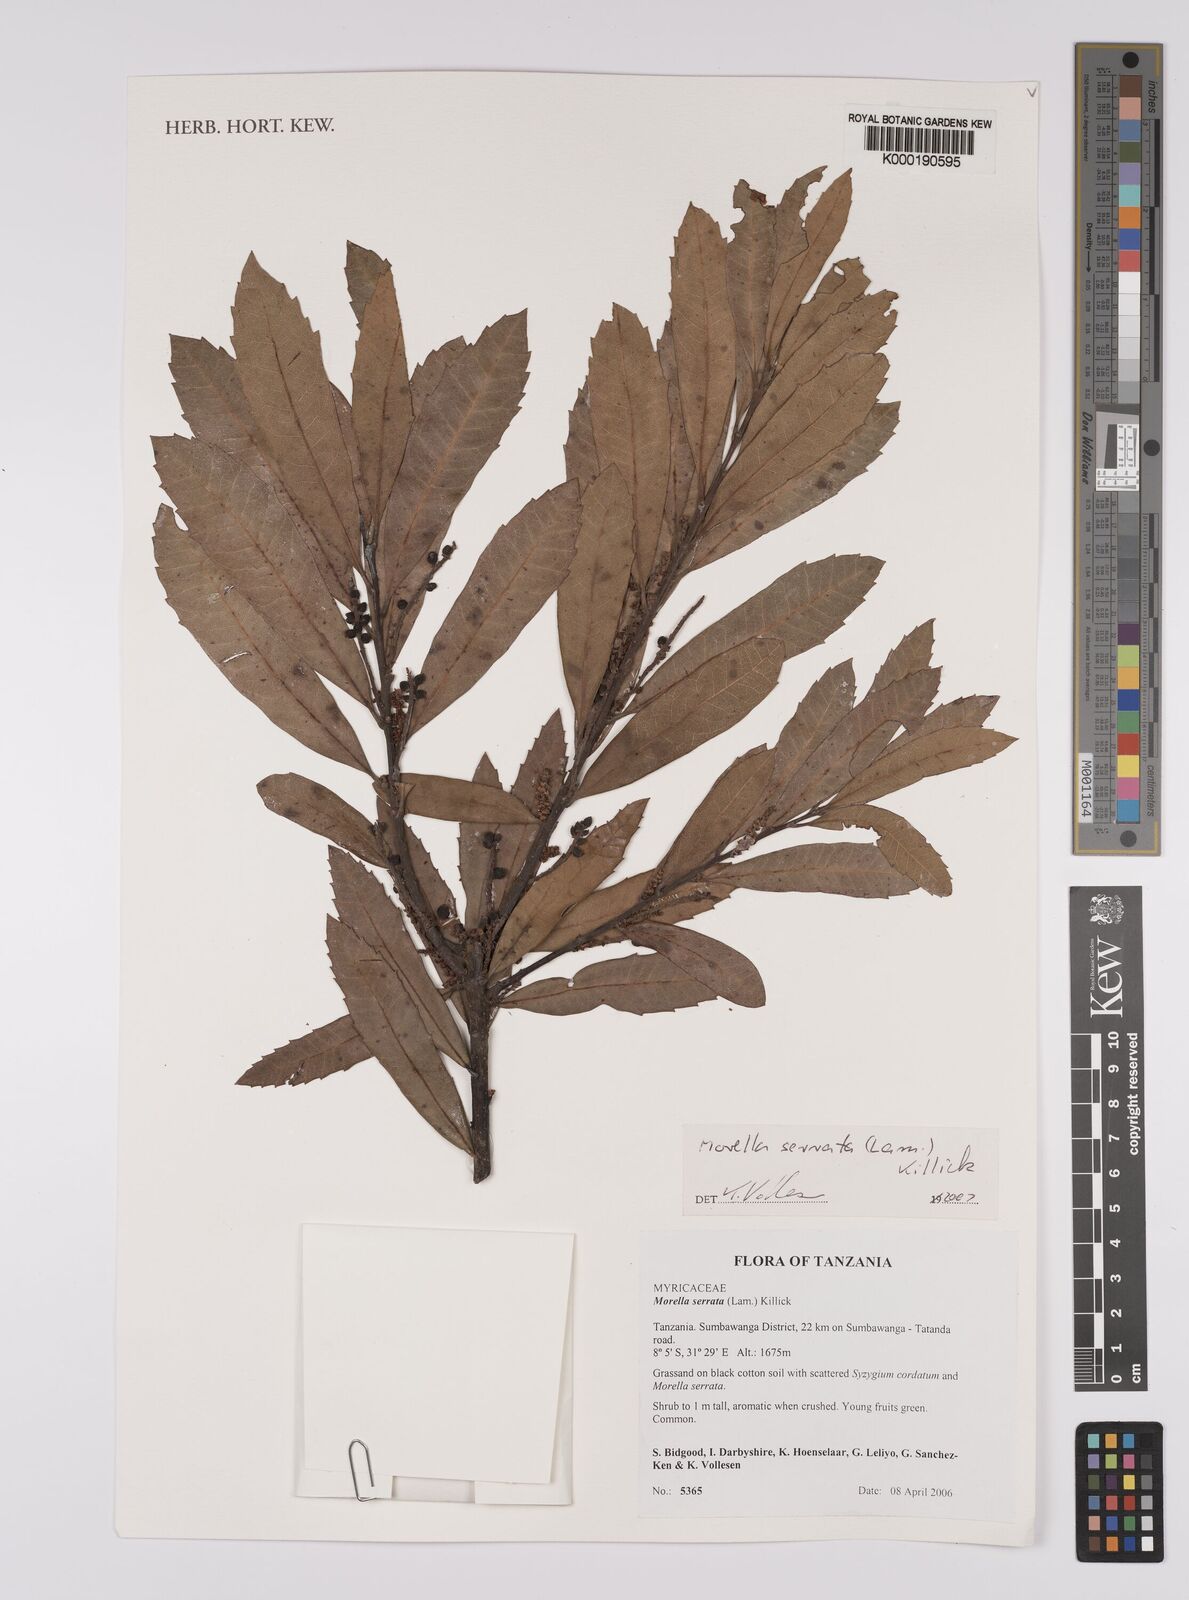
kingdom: Plantae
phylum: Tracheophyta
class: Magnoliopsida
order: Fagales
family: Myricaceae
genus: Morella
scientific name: Morella serrata
